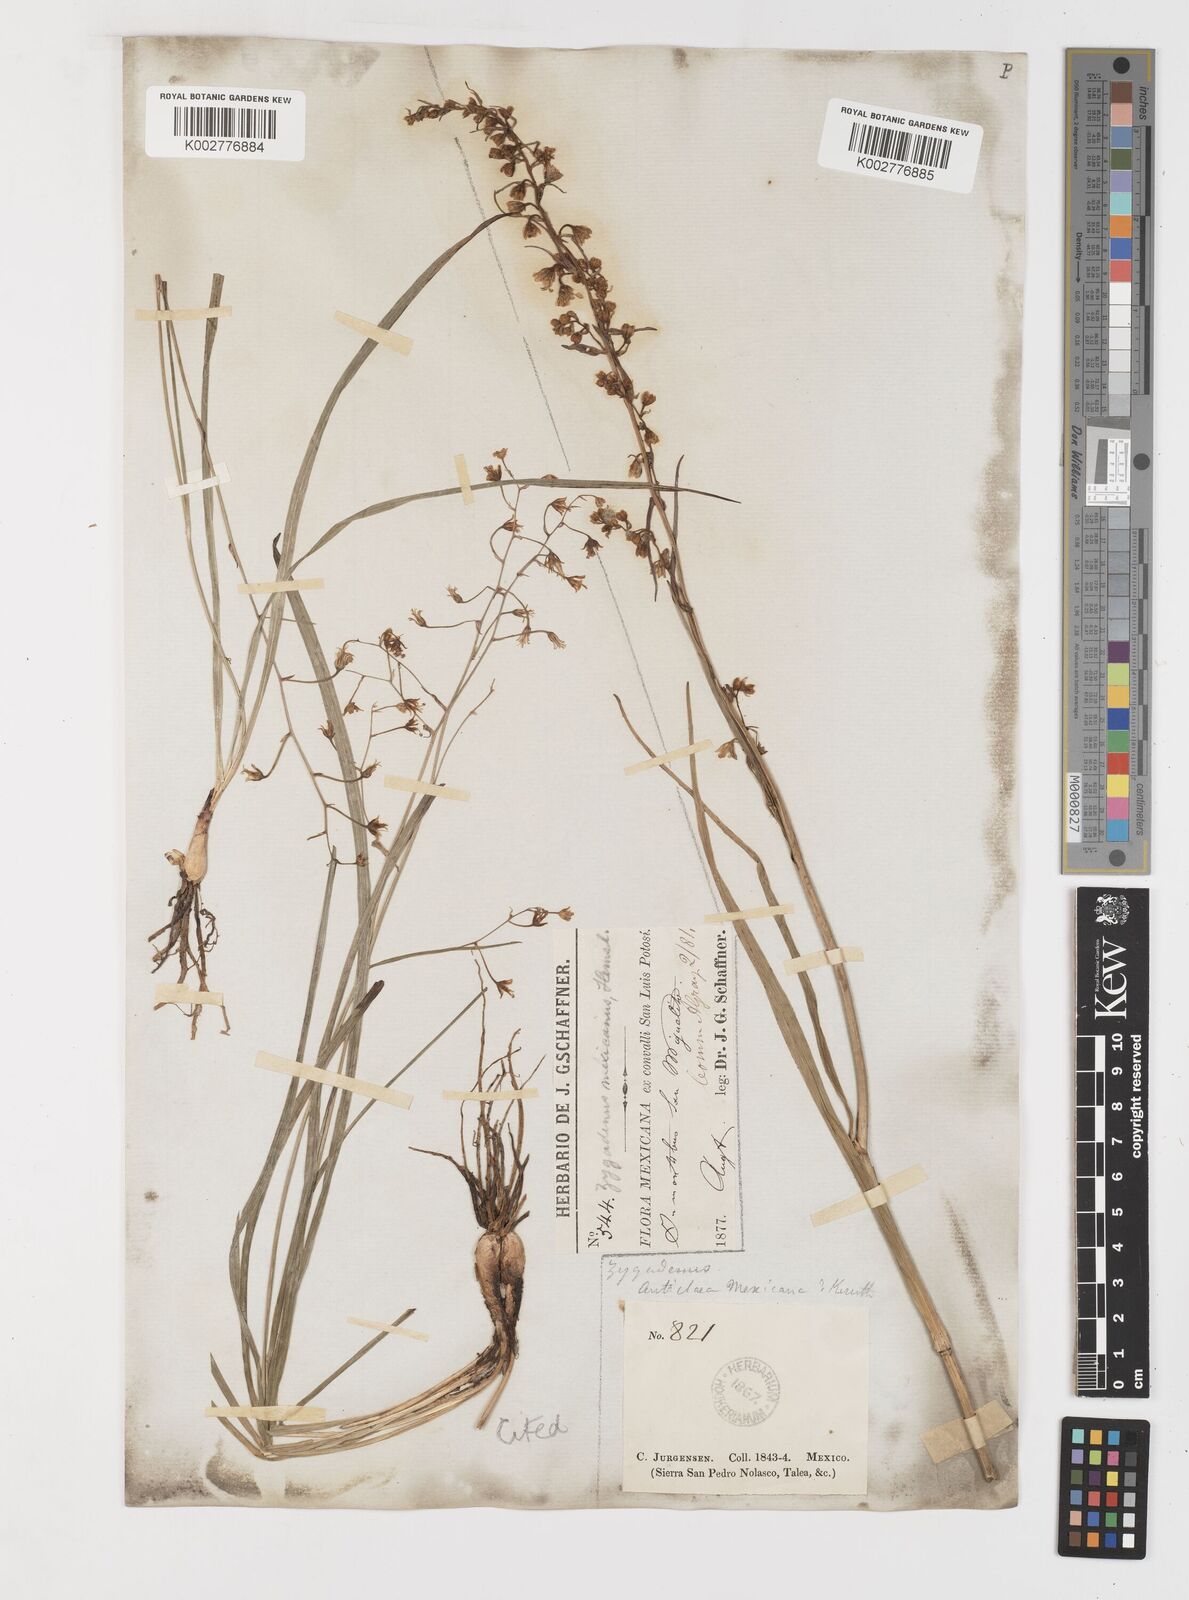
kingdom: Plantae
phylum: Tracheophyta
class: Liliopsida
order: Liliales
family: Melanthiaceae
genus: Anticlea
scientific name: Anticlea virescens
